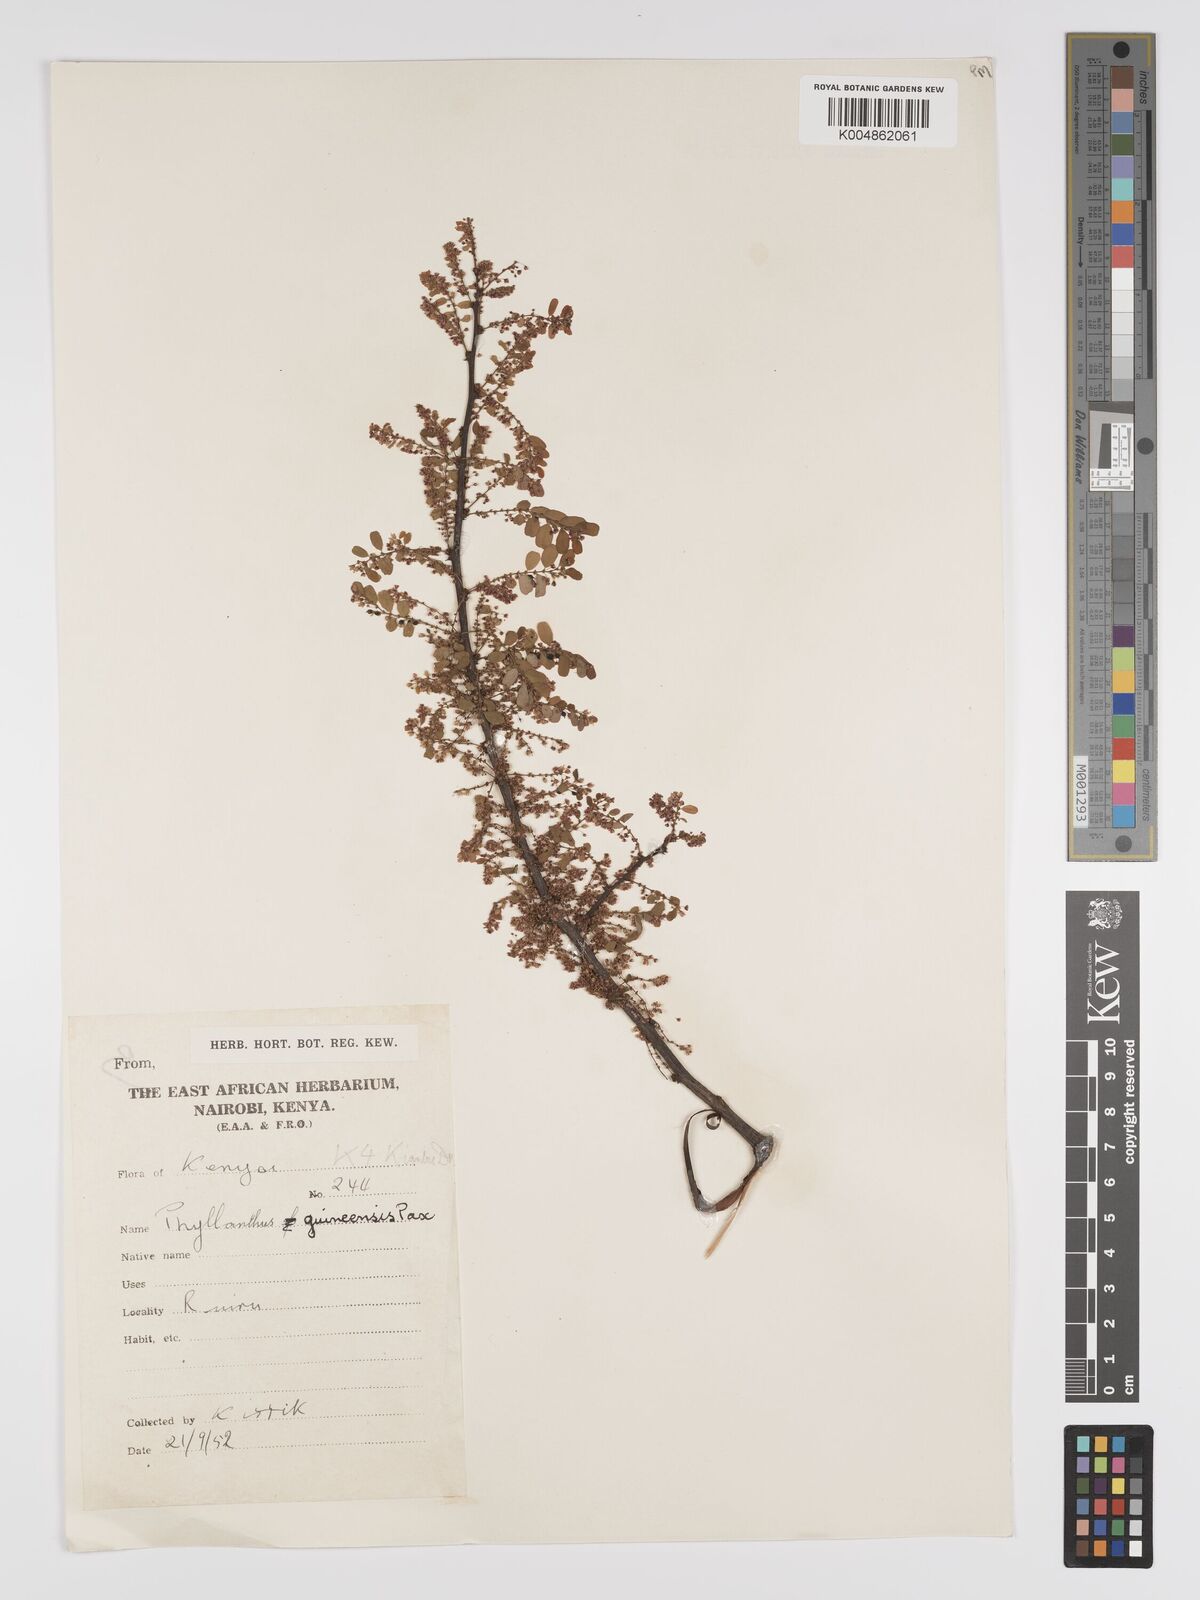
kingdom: Plantae
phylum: Tracheophyta
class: Magnoliopsida
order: Malpighiales
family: Phyllanthaceae
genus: Phyllanthus
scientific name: Phyllanthus ovalifolius
